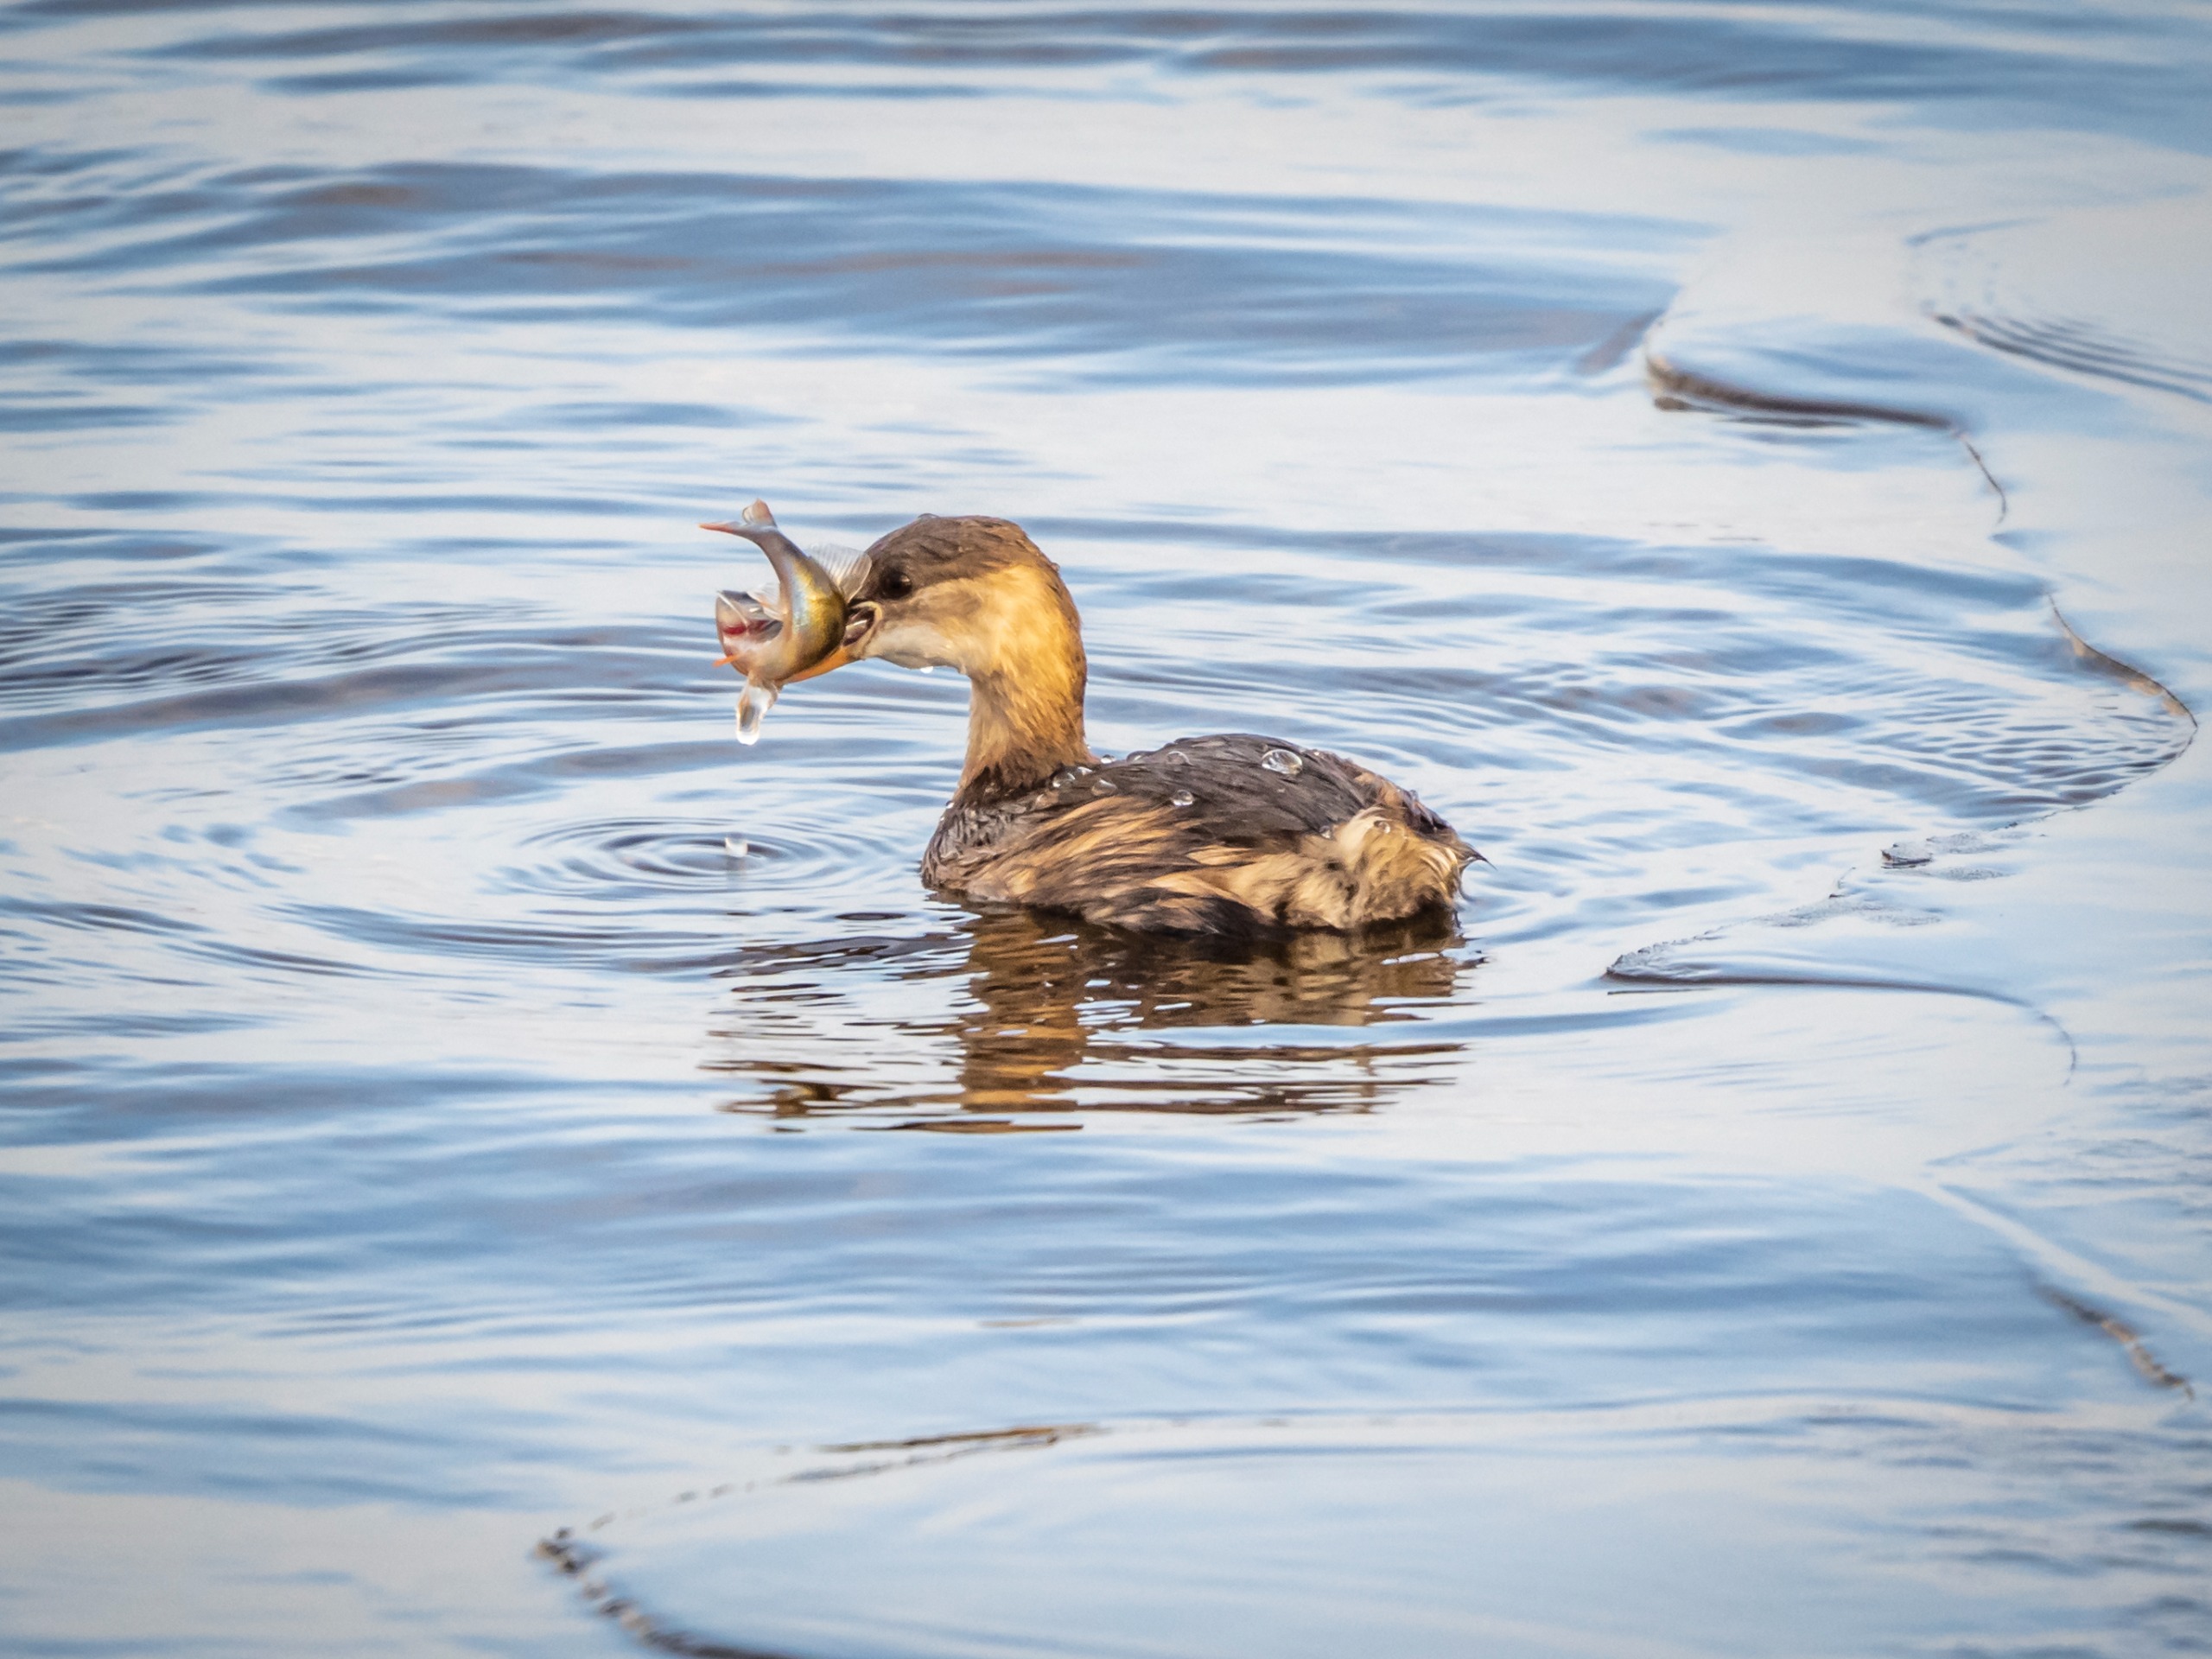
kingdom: Animalia
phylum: Chordata
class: Aves
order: Podicipediformes
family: Podicipedidae
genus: Tachybaptus
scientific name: Tachybaptus ruficollis
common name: Lille lappedykker
